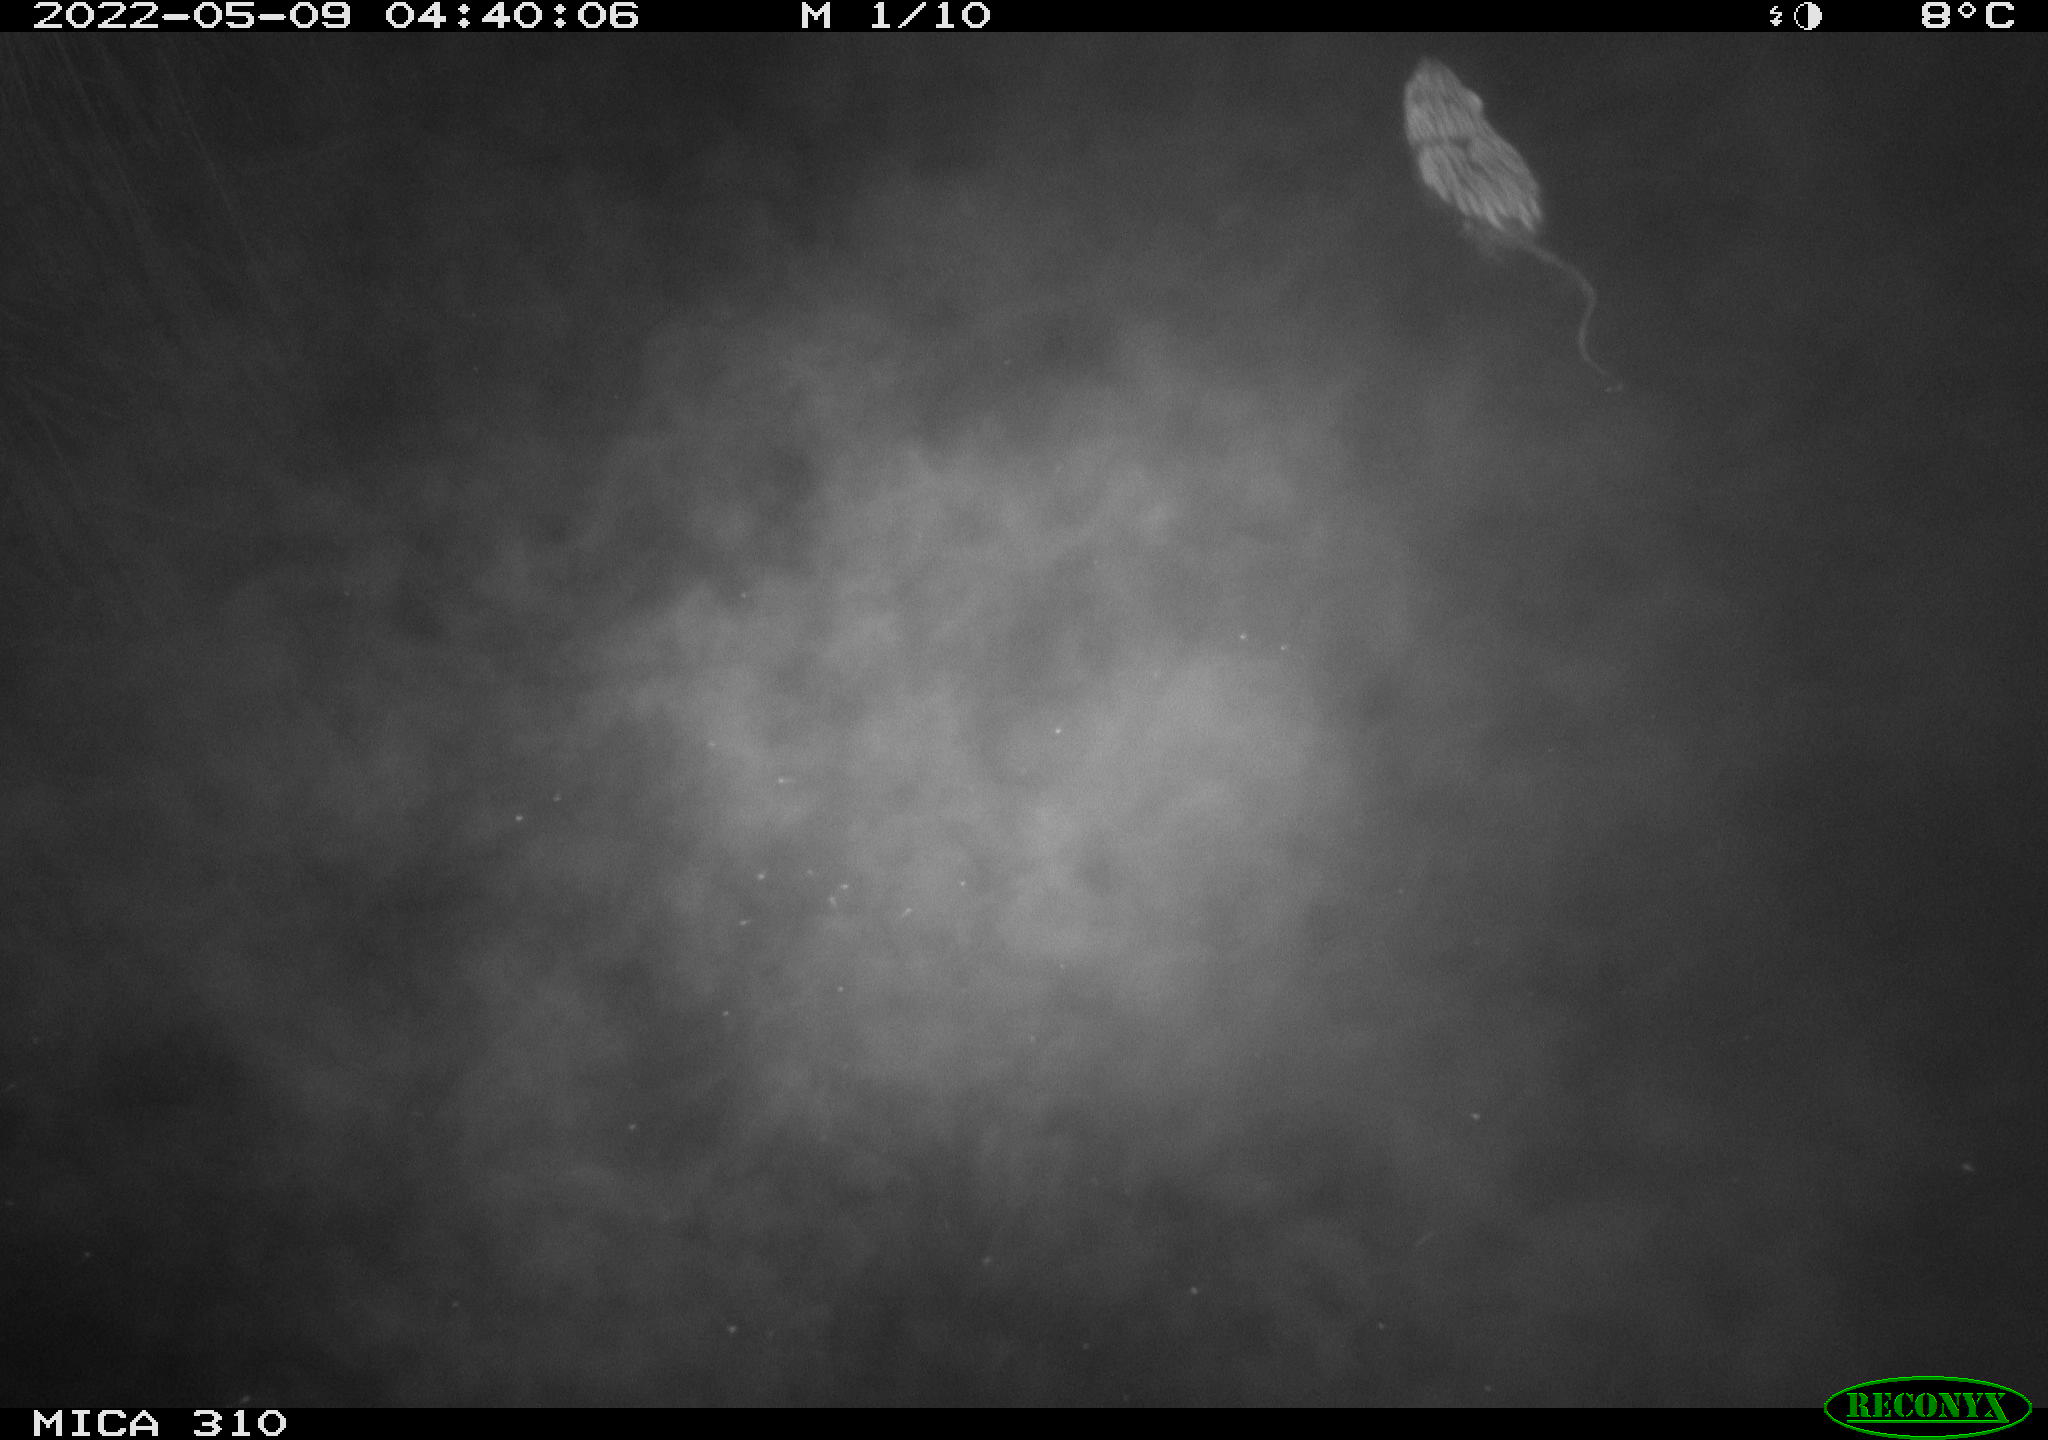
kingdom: Animalia
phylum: Chordata
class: Mammalia
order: Rodentia
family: Cricetidae
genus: Ondatra
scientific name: Ondatra zibethicus
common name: Muskrat
